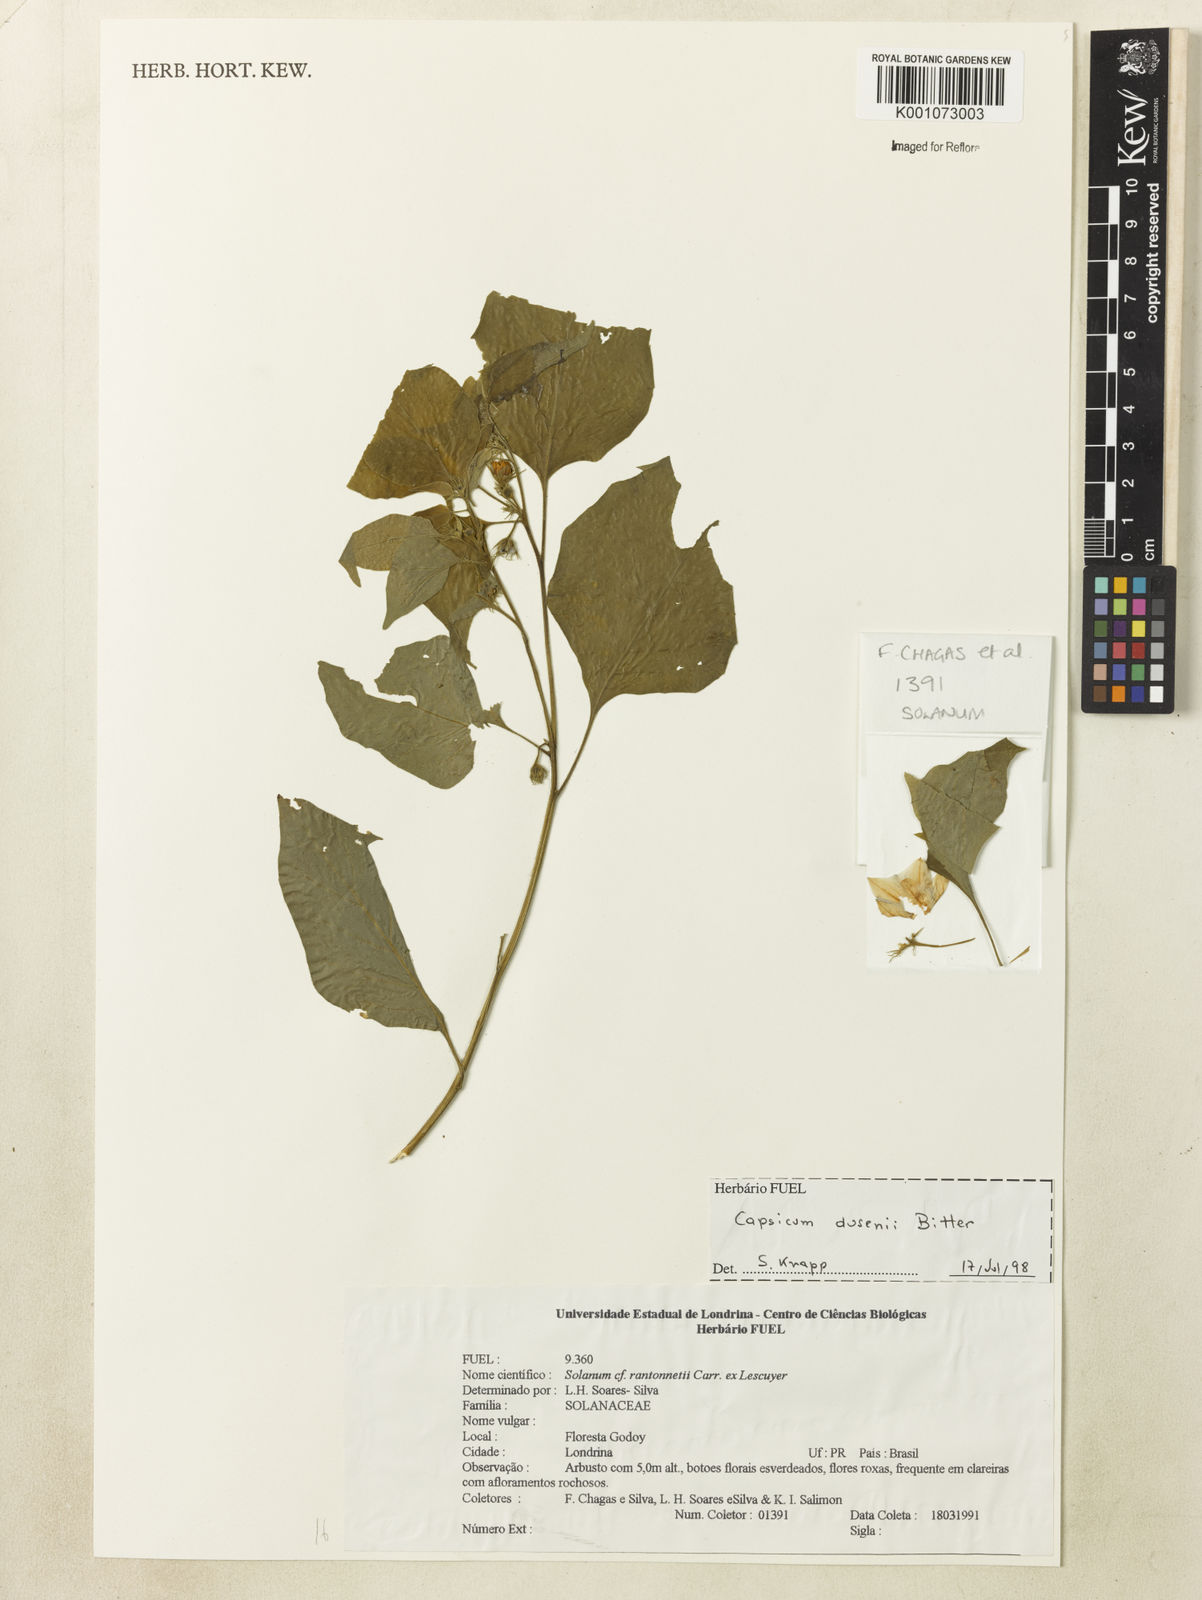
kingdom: Plantae
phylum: Tracheophyta
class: Magnoliopsida
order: Solanales
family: Solanaceae
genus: Capsicum
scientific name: Capsicum cornutum
